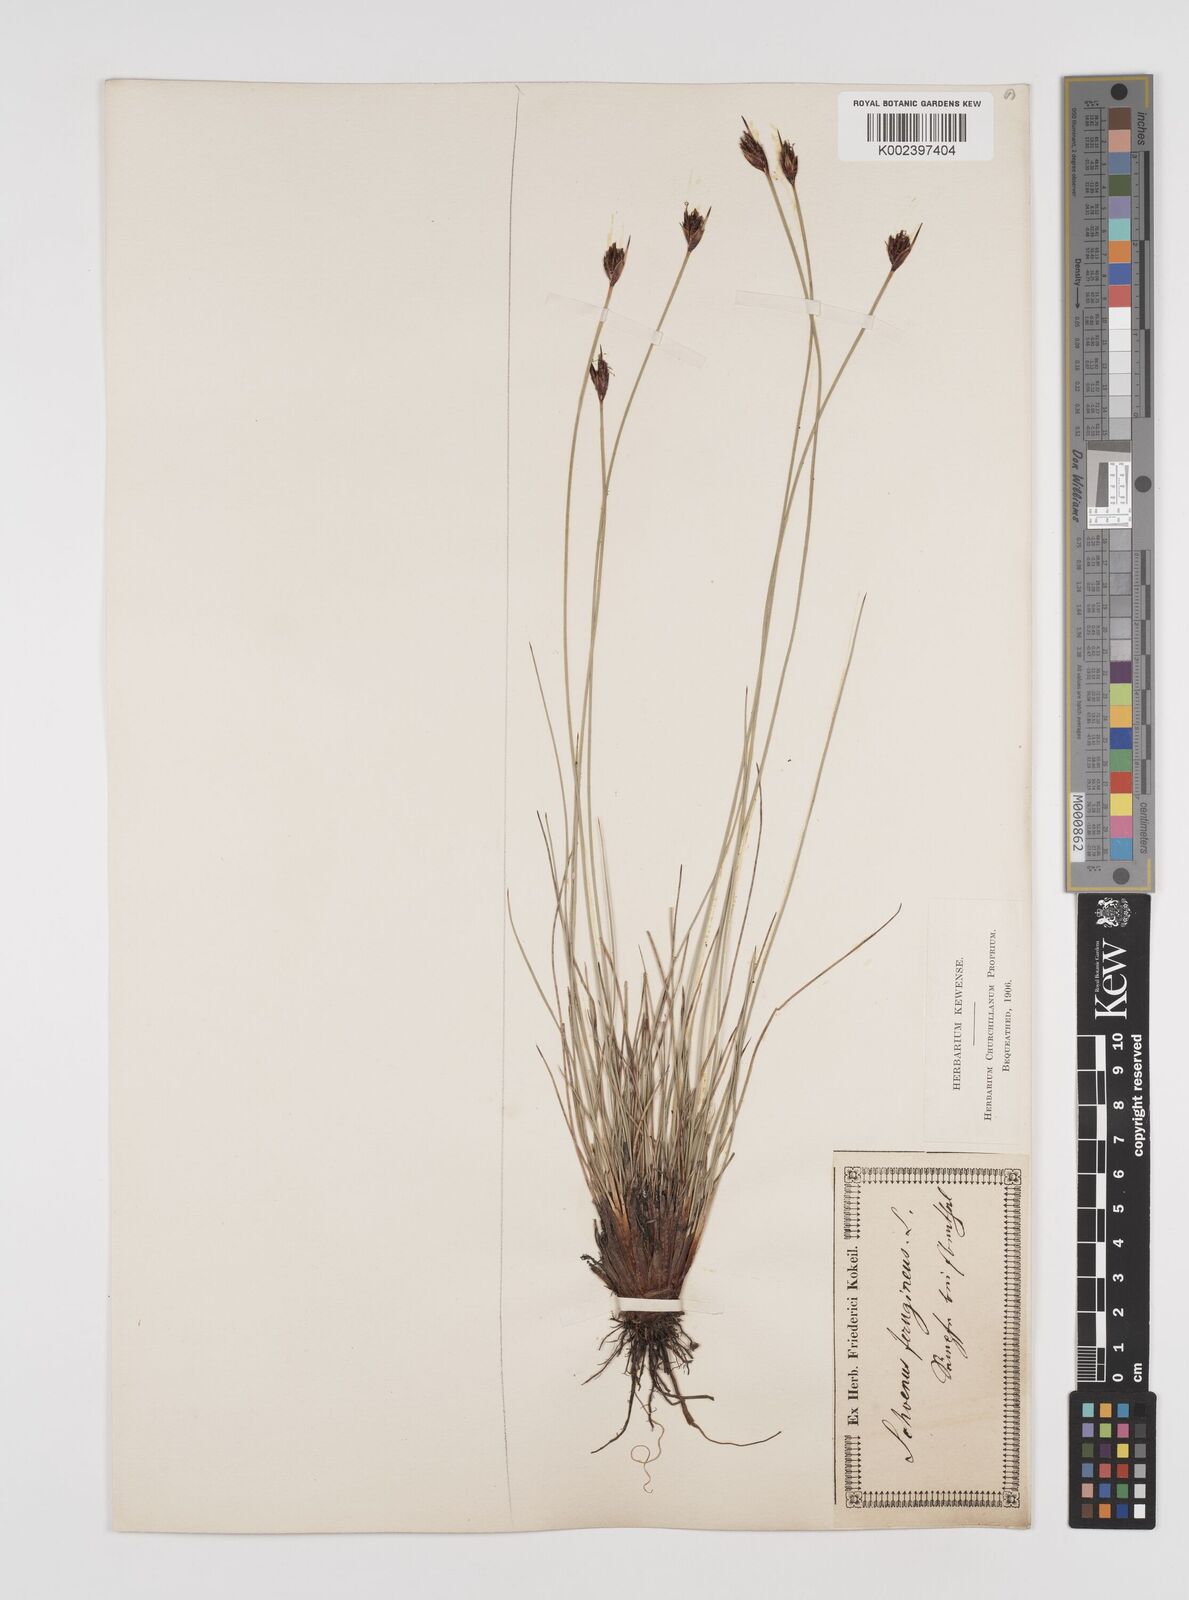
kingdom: Plantae
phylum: Tracheophyta
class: Liliopsida
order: Poales
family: Cyperaceae
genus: Schoenus
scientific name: Schoenus ferrugineus
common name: Brown bog-rush
